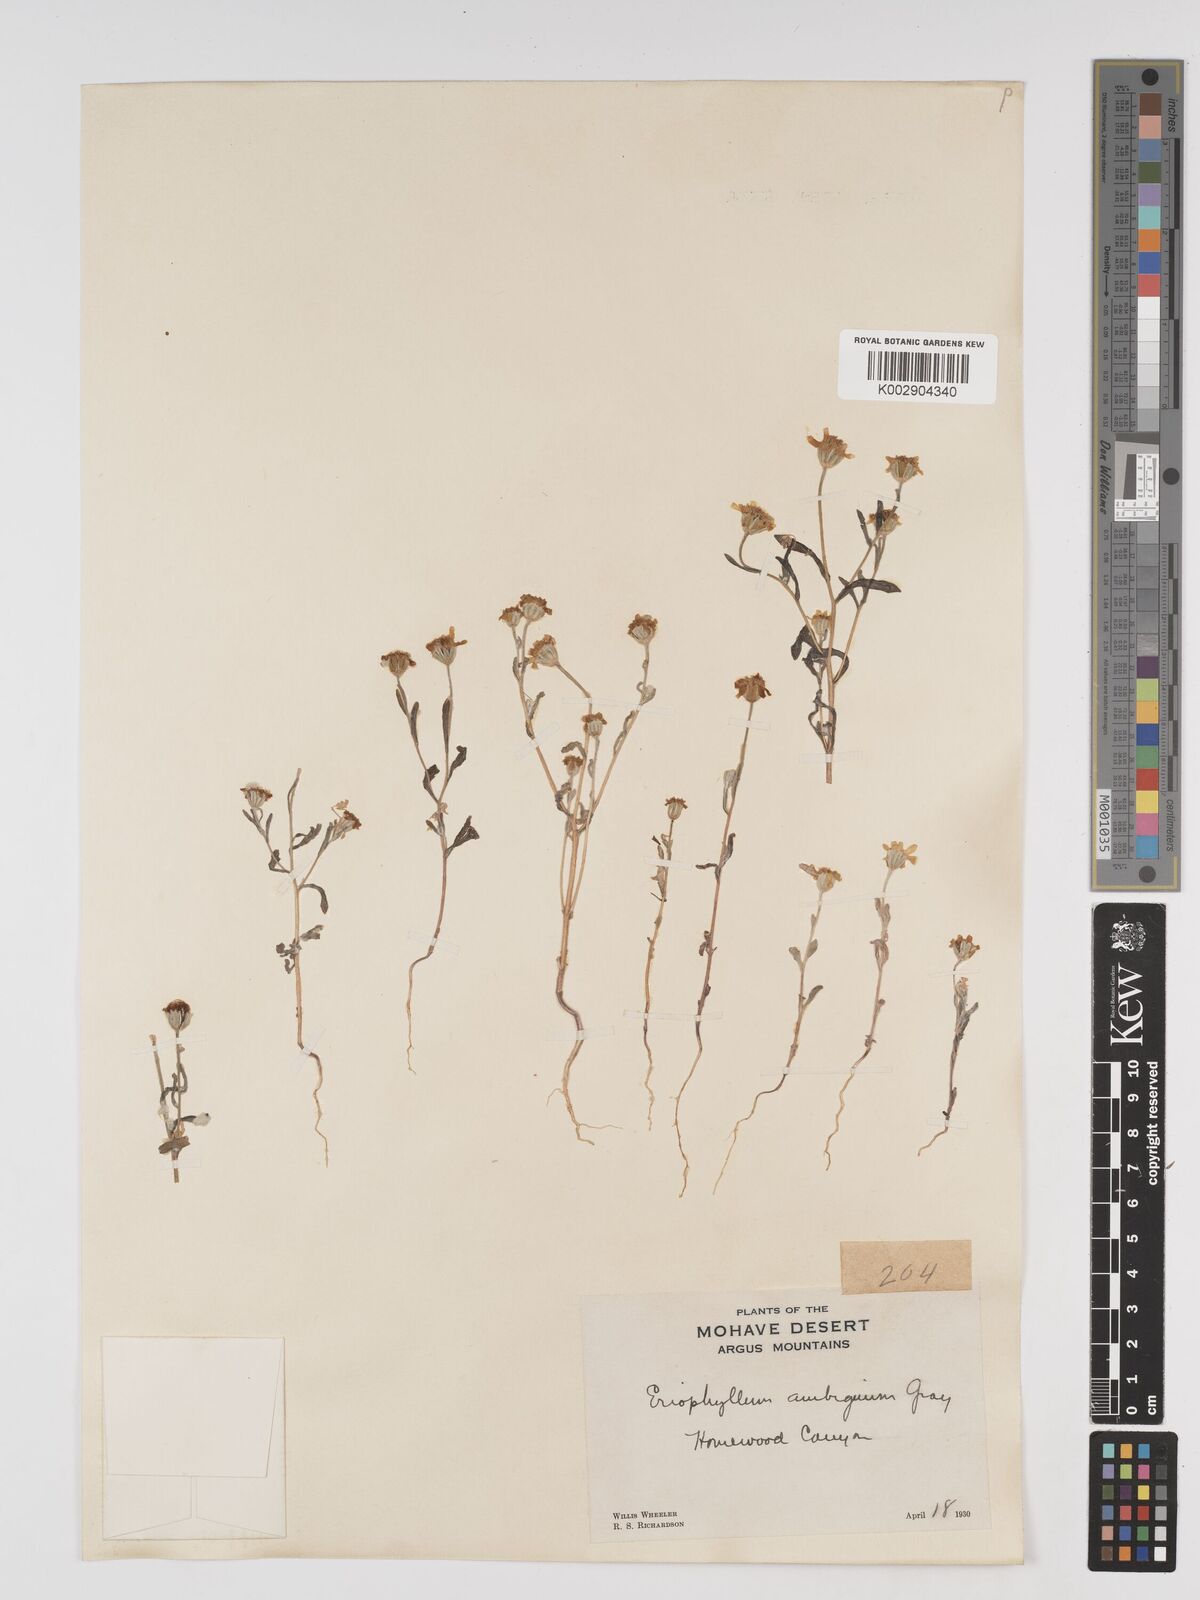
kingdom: Plantae
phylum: Tracheophyta
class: Magnoliopsida
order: Asterales
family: Asteraceae
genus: Eriophyllum
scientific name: Eriophyllum ambiguum
